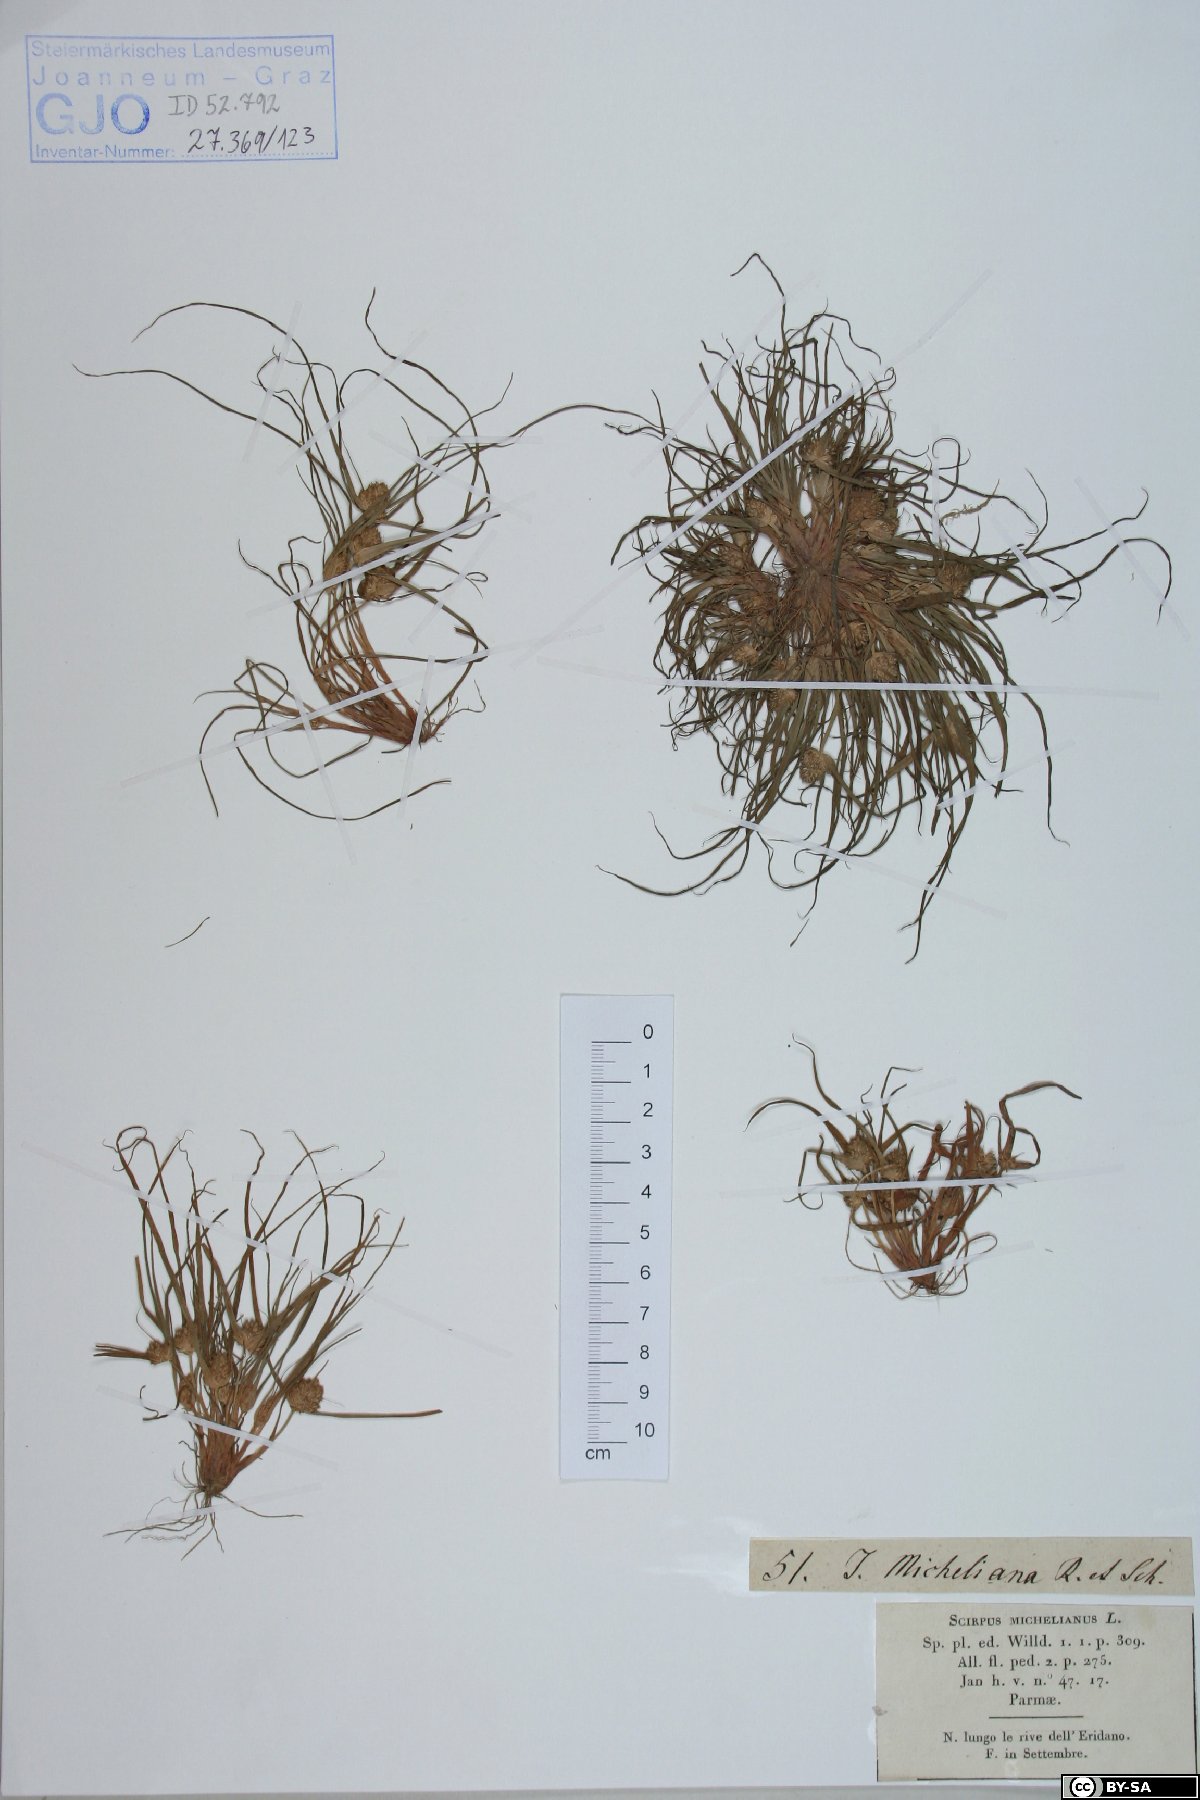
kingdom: Plantae
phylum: Tracheophyta
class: Liliopsida
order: Poales
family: Cyperaceae
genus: Cyperus
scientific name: Cyperus michelianus
